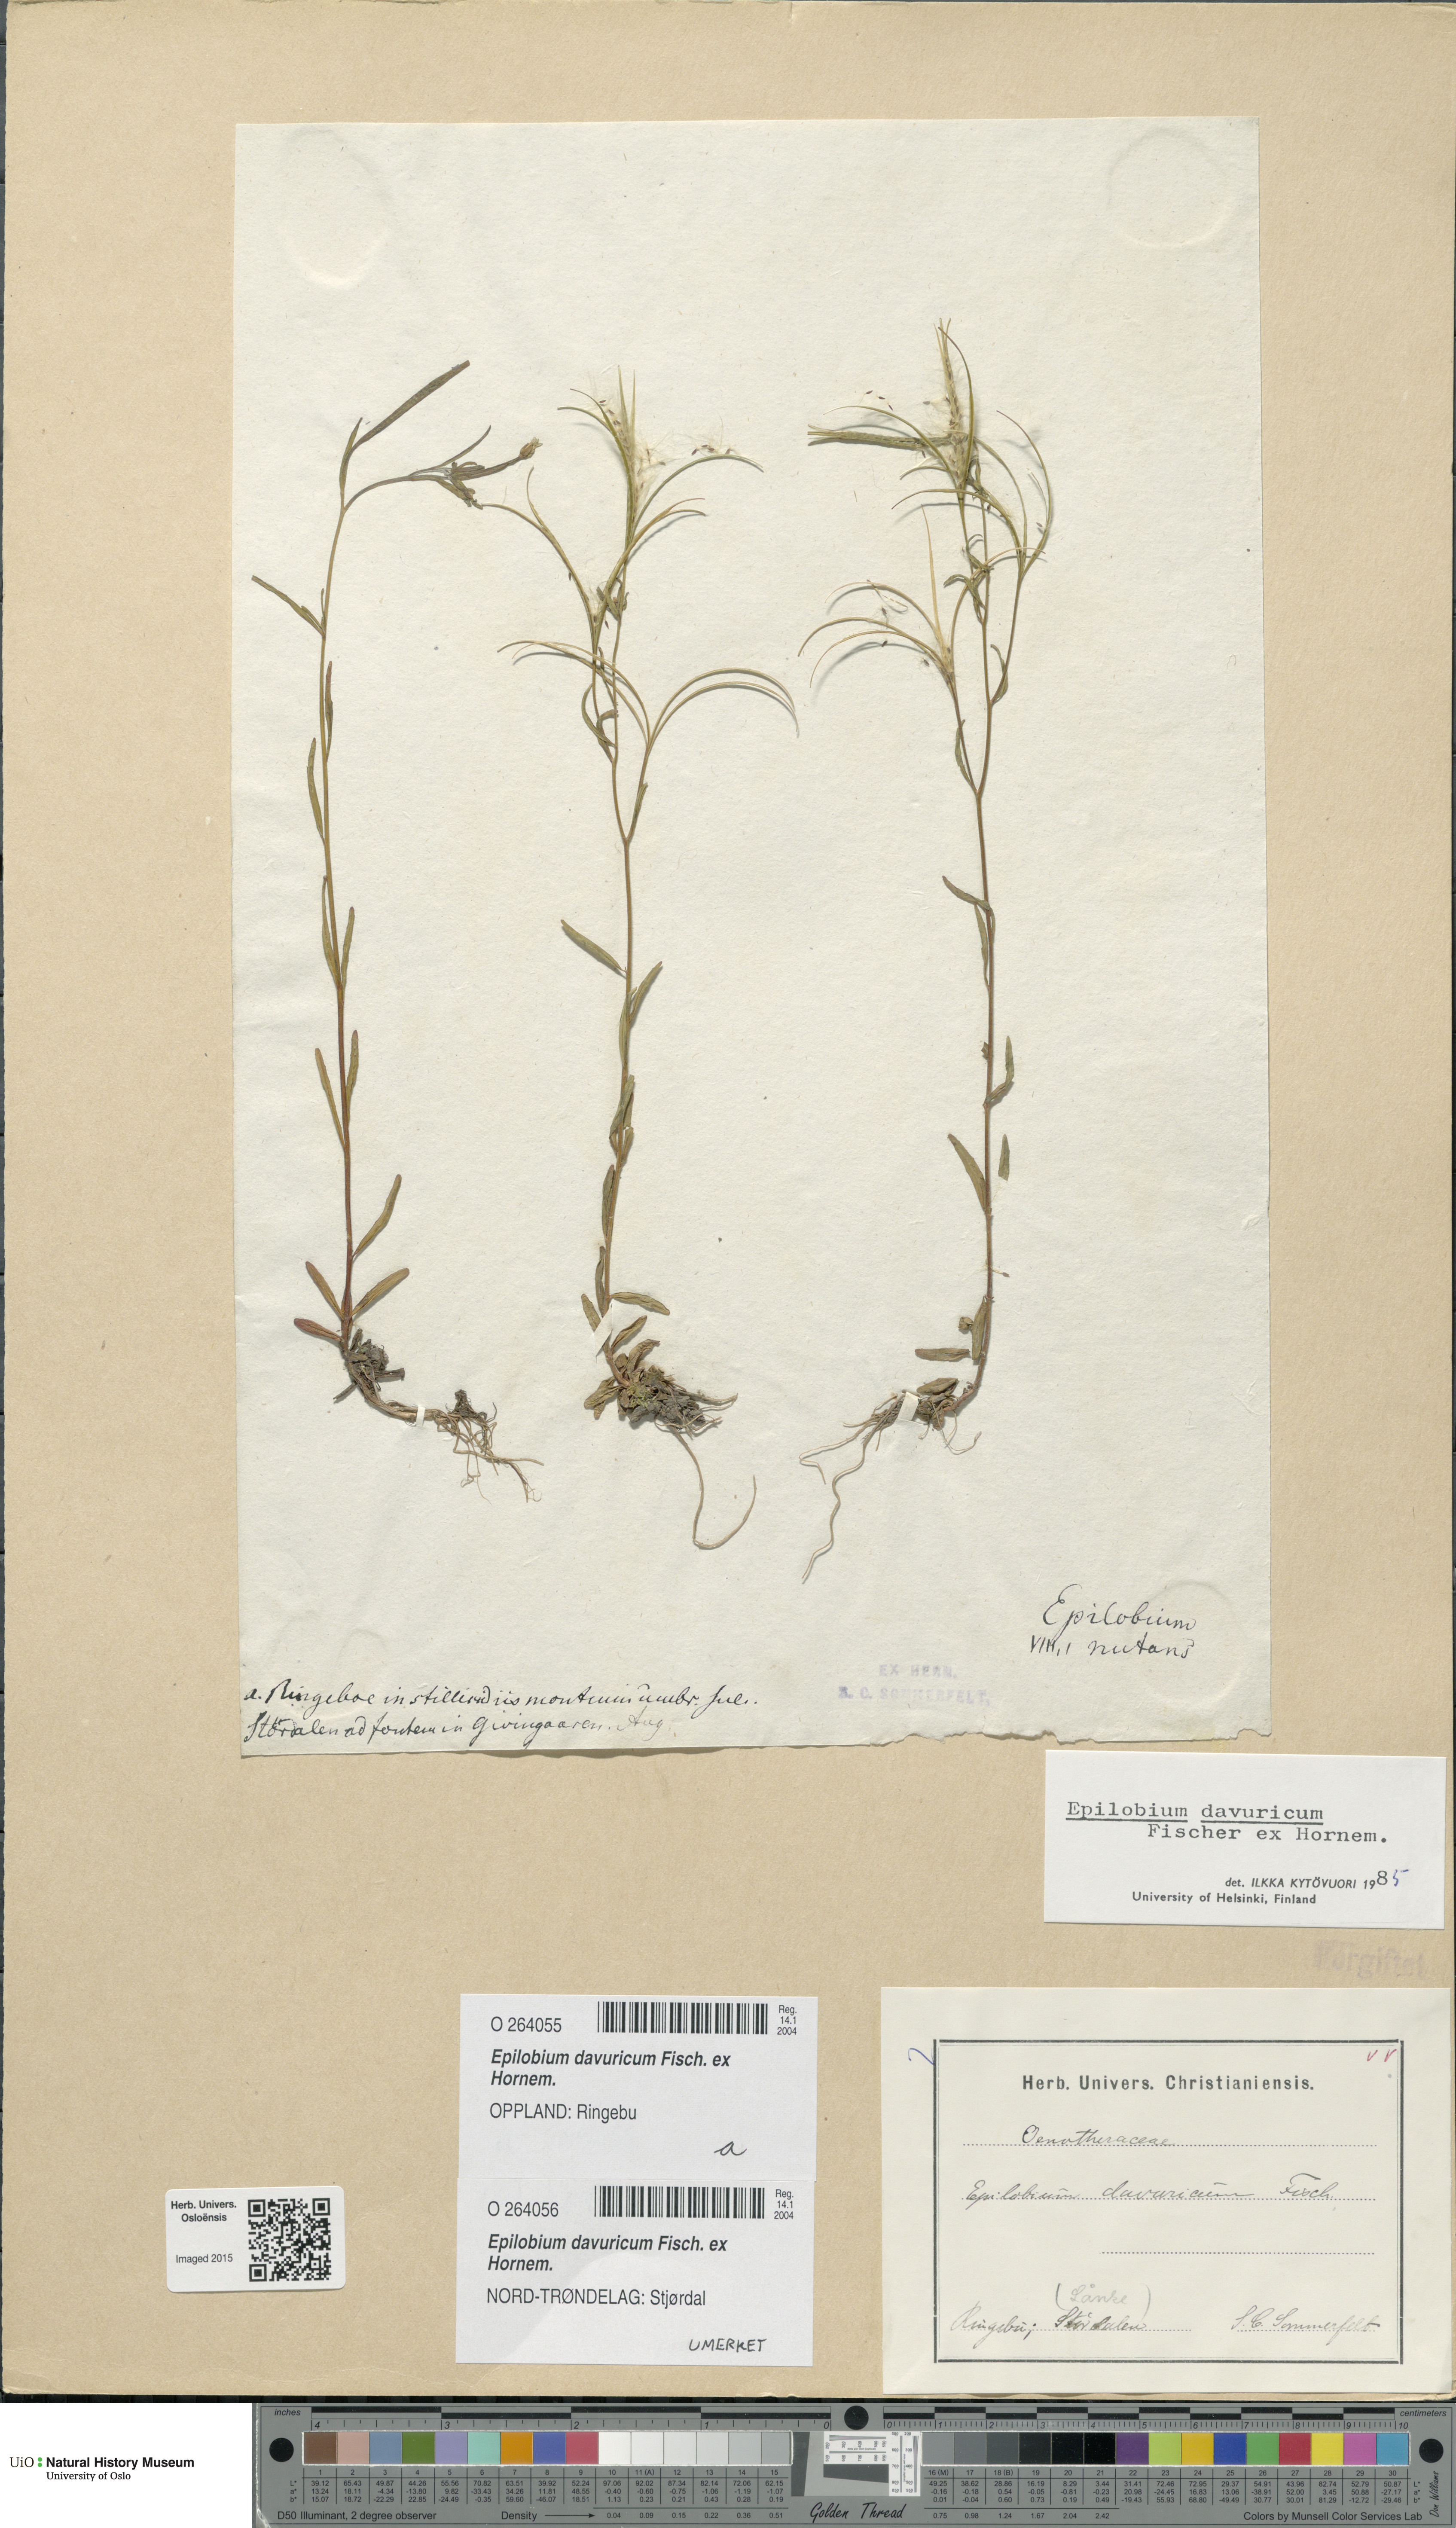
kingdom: Plantae
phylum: Tracheophyta
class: Magnoliopsida
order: Myrtales
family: Onagraceae
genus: Epilobium
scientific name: Epilobium davuricum
